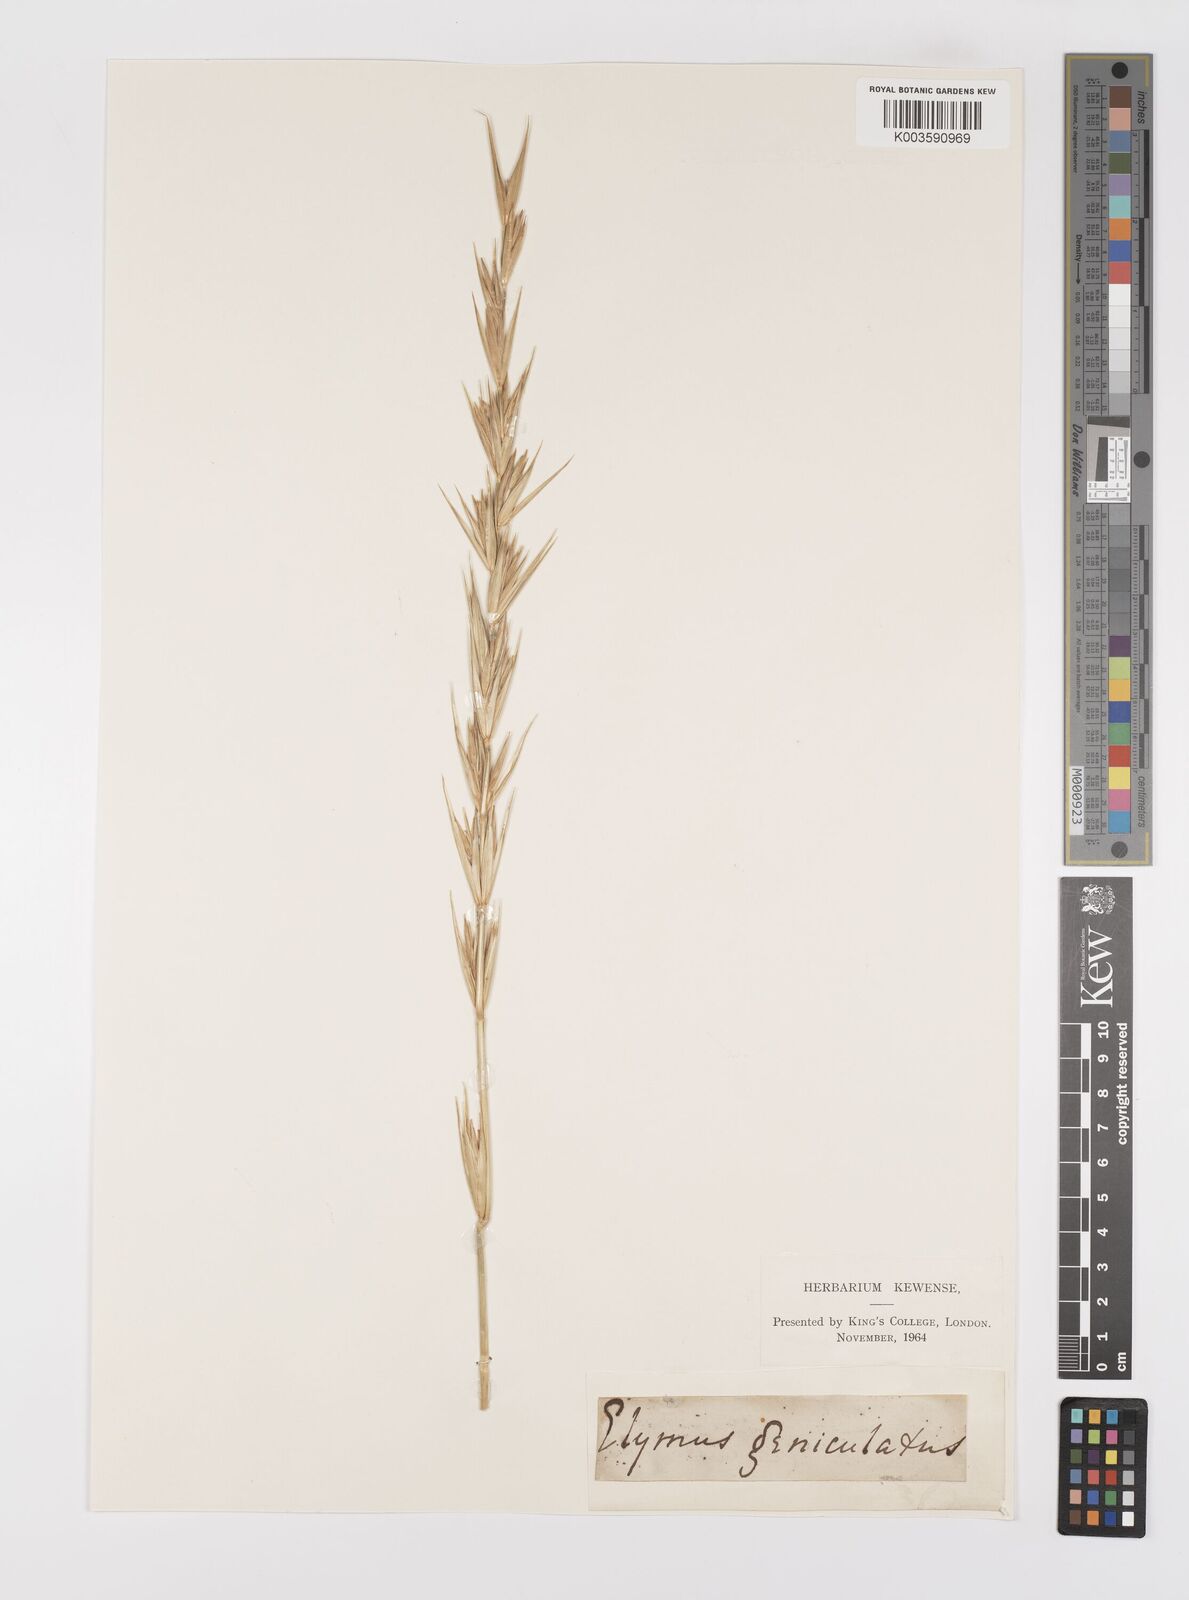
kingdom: Plantae
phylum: Tracheophyta
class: Liliopsida
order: Poales
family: Poaceae
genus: Leymus
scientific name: Leymus arenarius
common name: Lyme-grass
